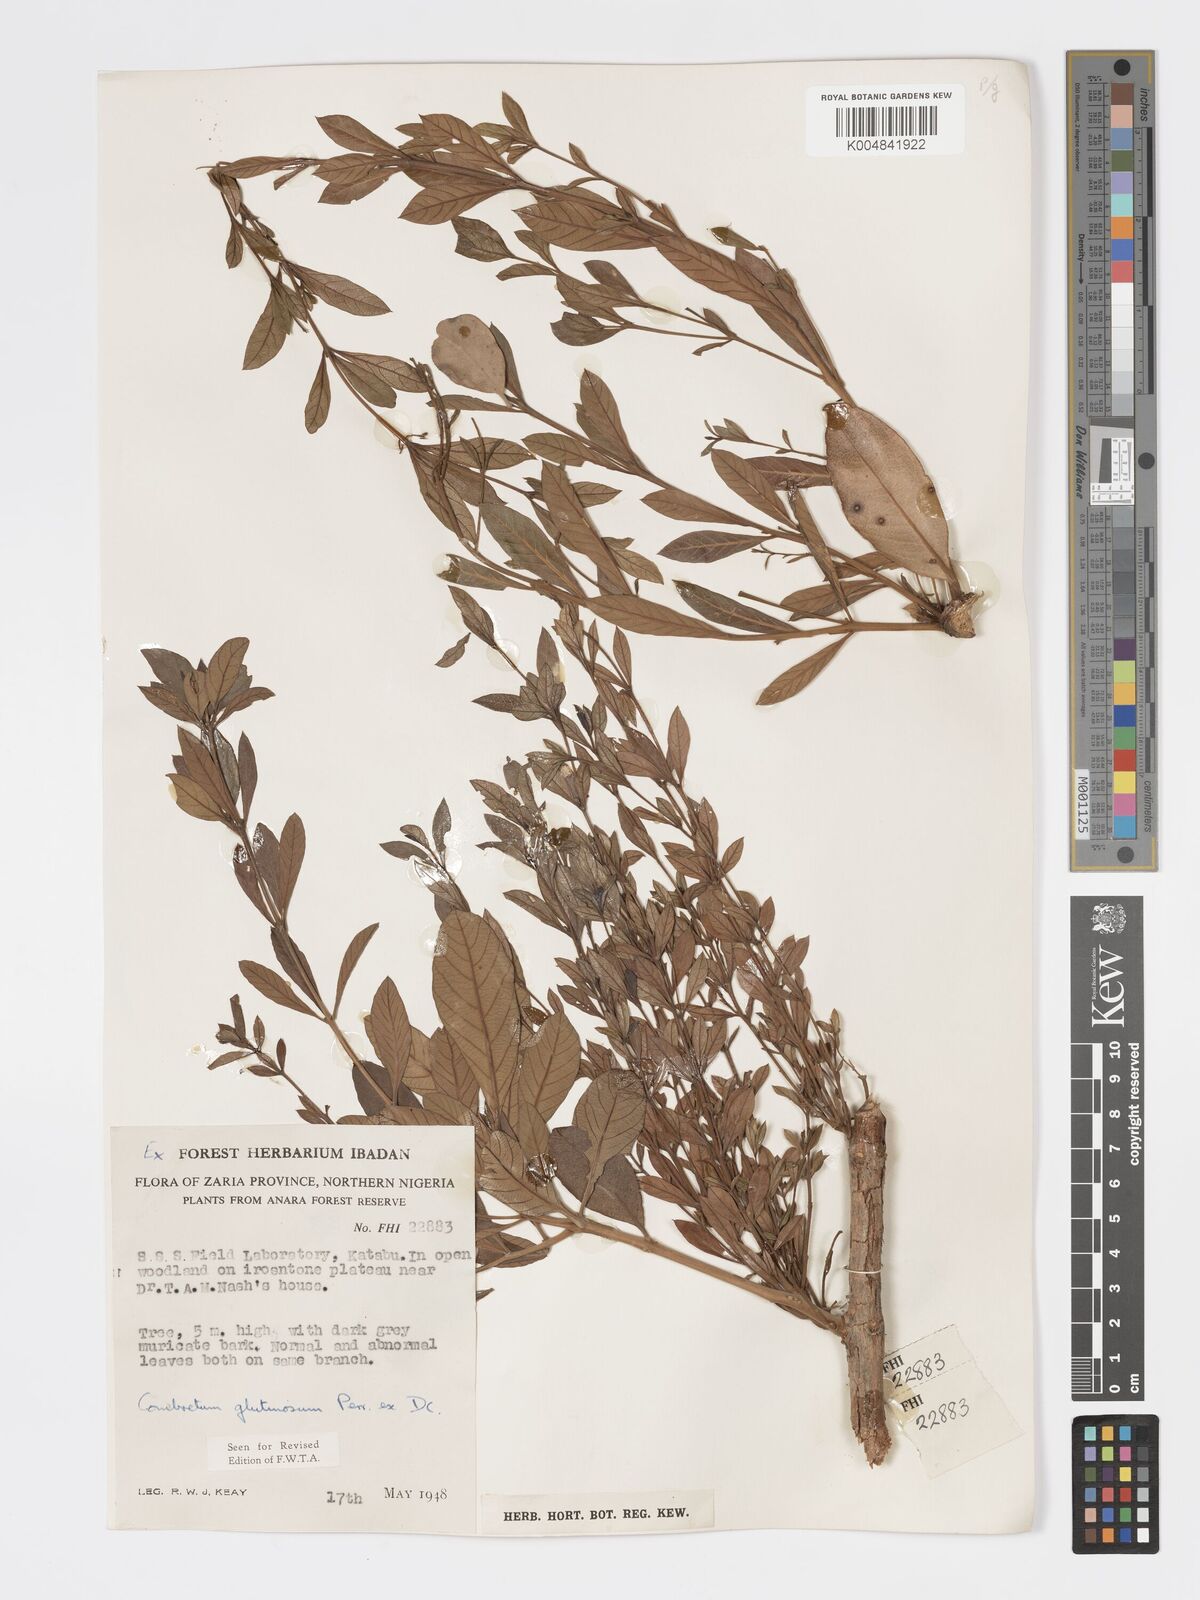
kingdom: Plantae
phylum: Tracheophyta
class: Magnoliopsida
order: Myrtales
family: Combretaceae
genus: Combretum
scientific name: Combretum
